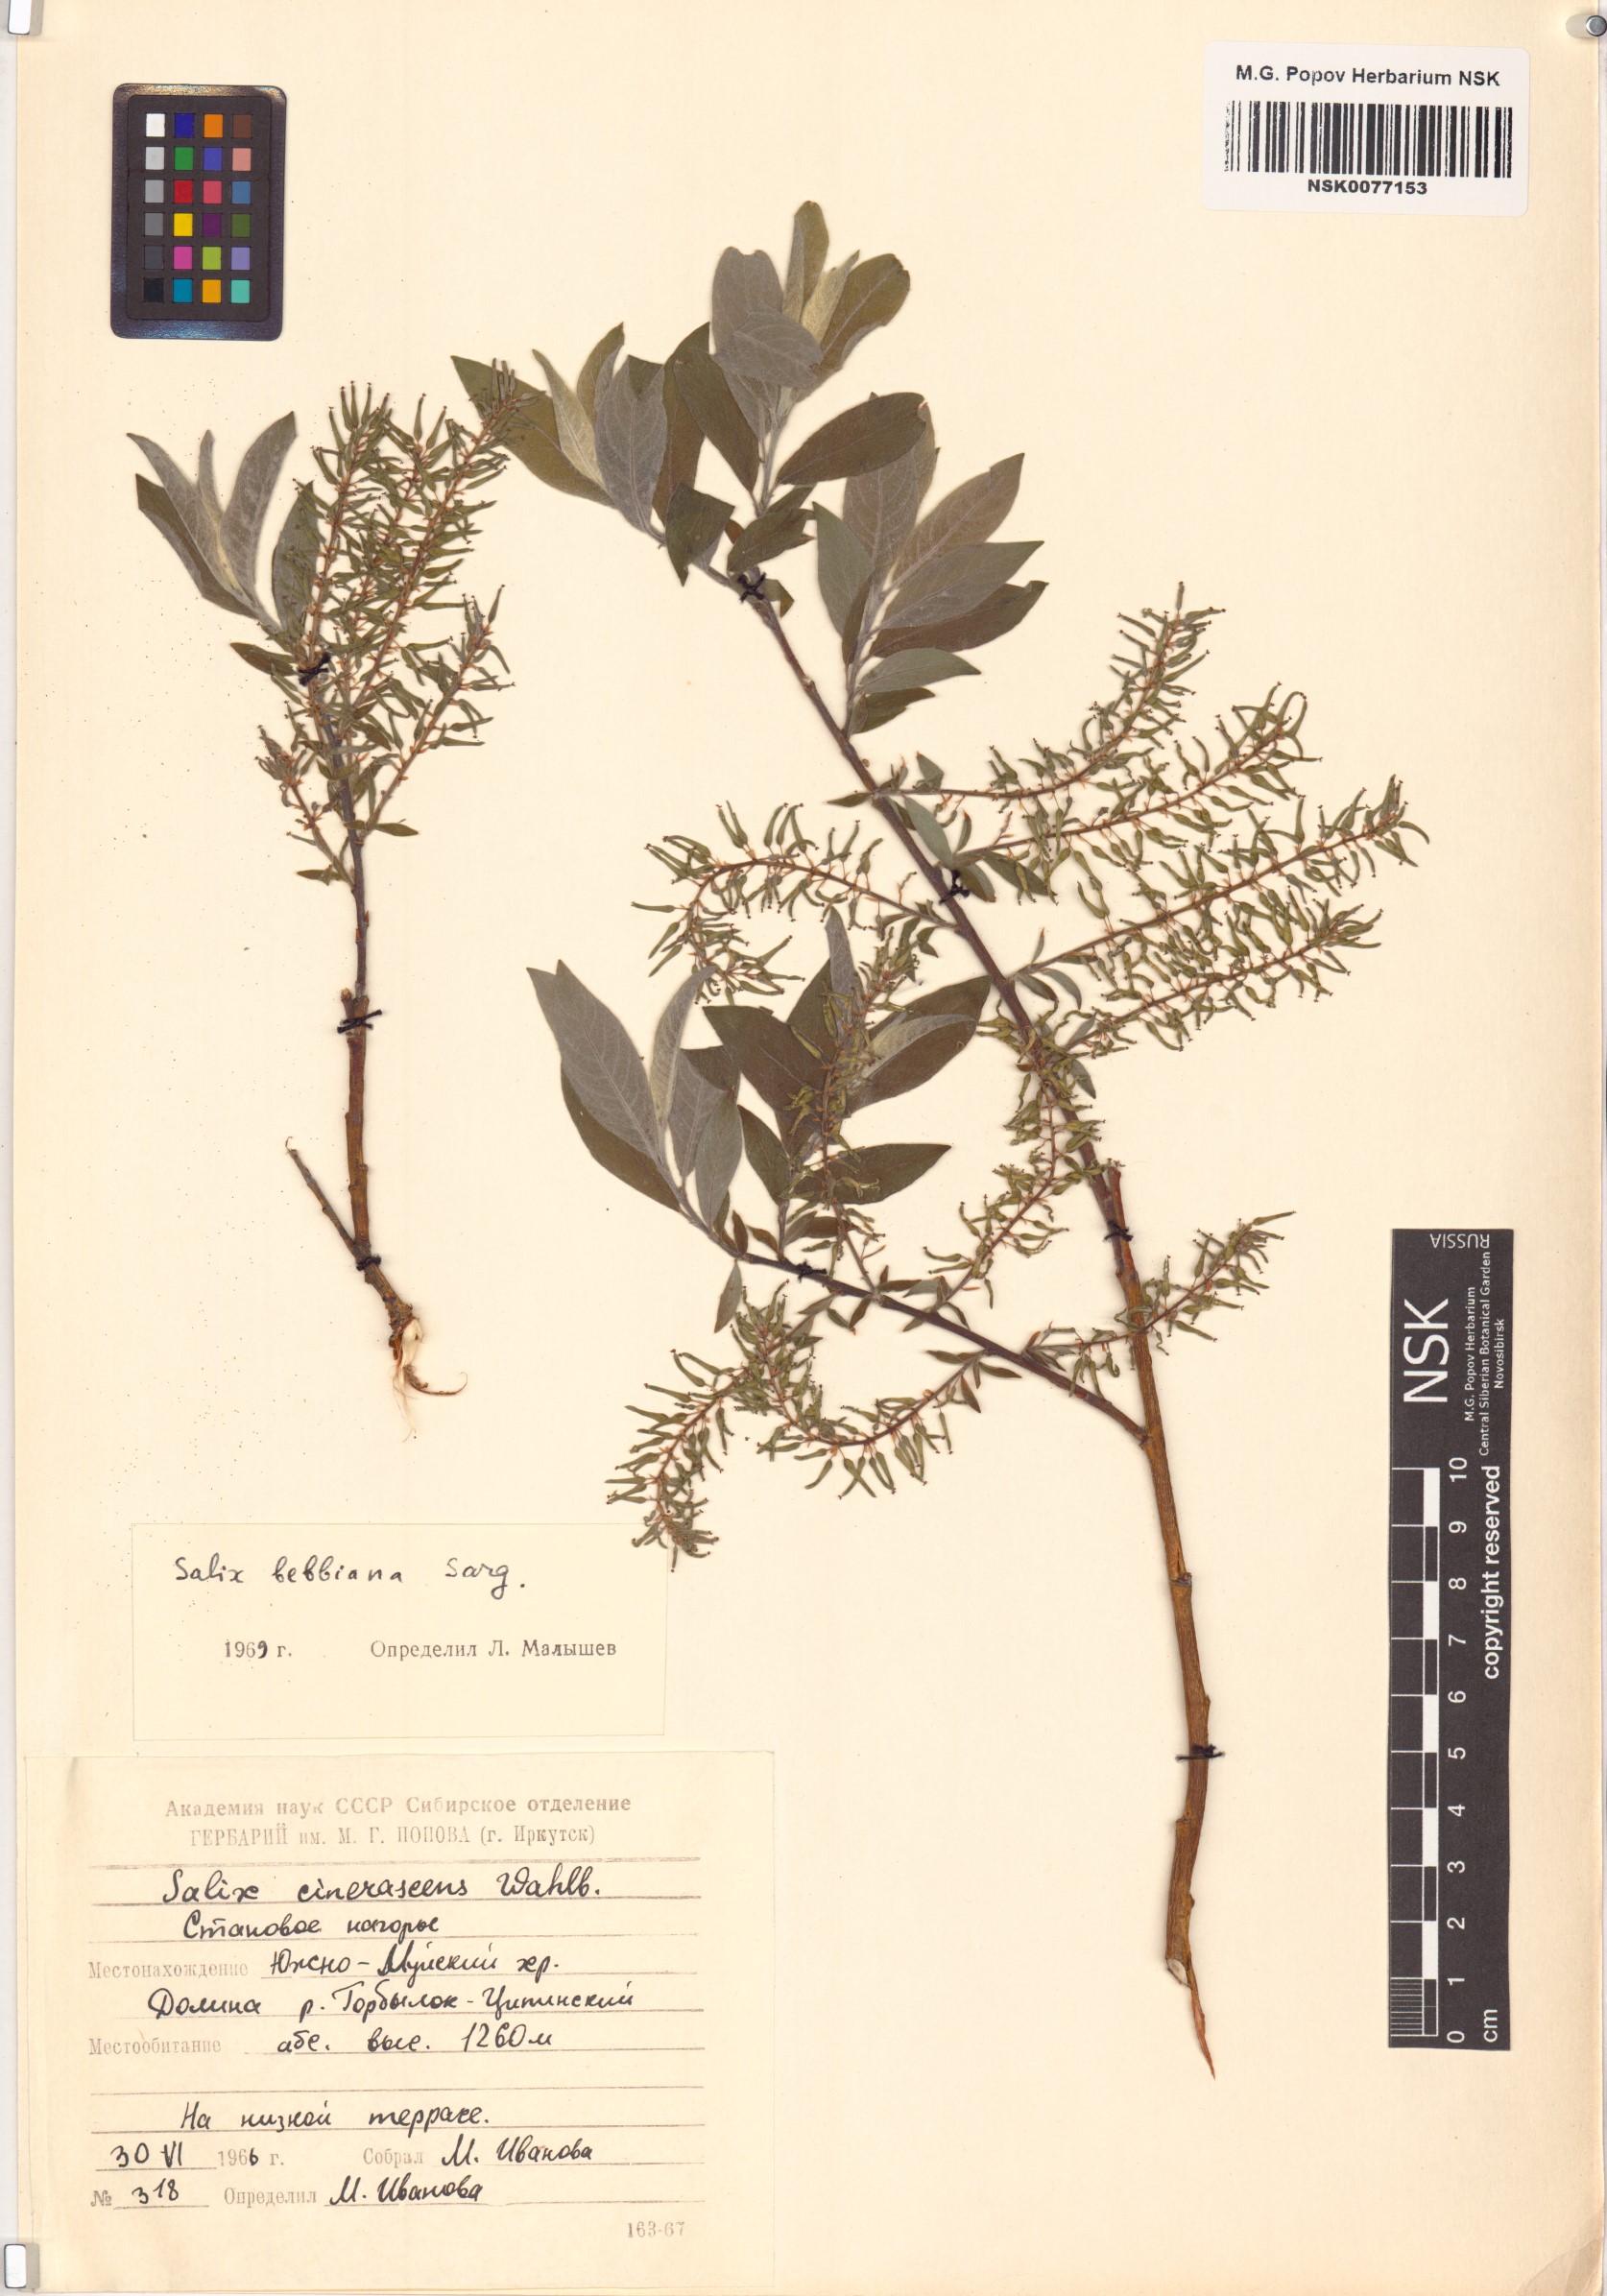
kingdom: Plantae
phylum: Tracheophyta
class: Magnoliopsida
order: Malpighiales
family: Salicaceae
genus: Salix
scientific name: Salix bebbiana
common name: Bebb's willow
